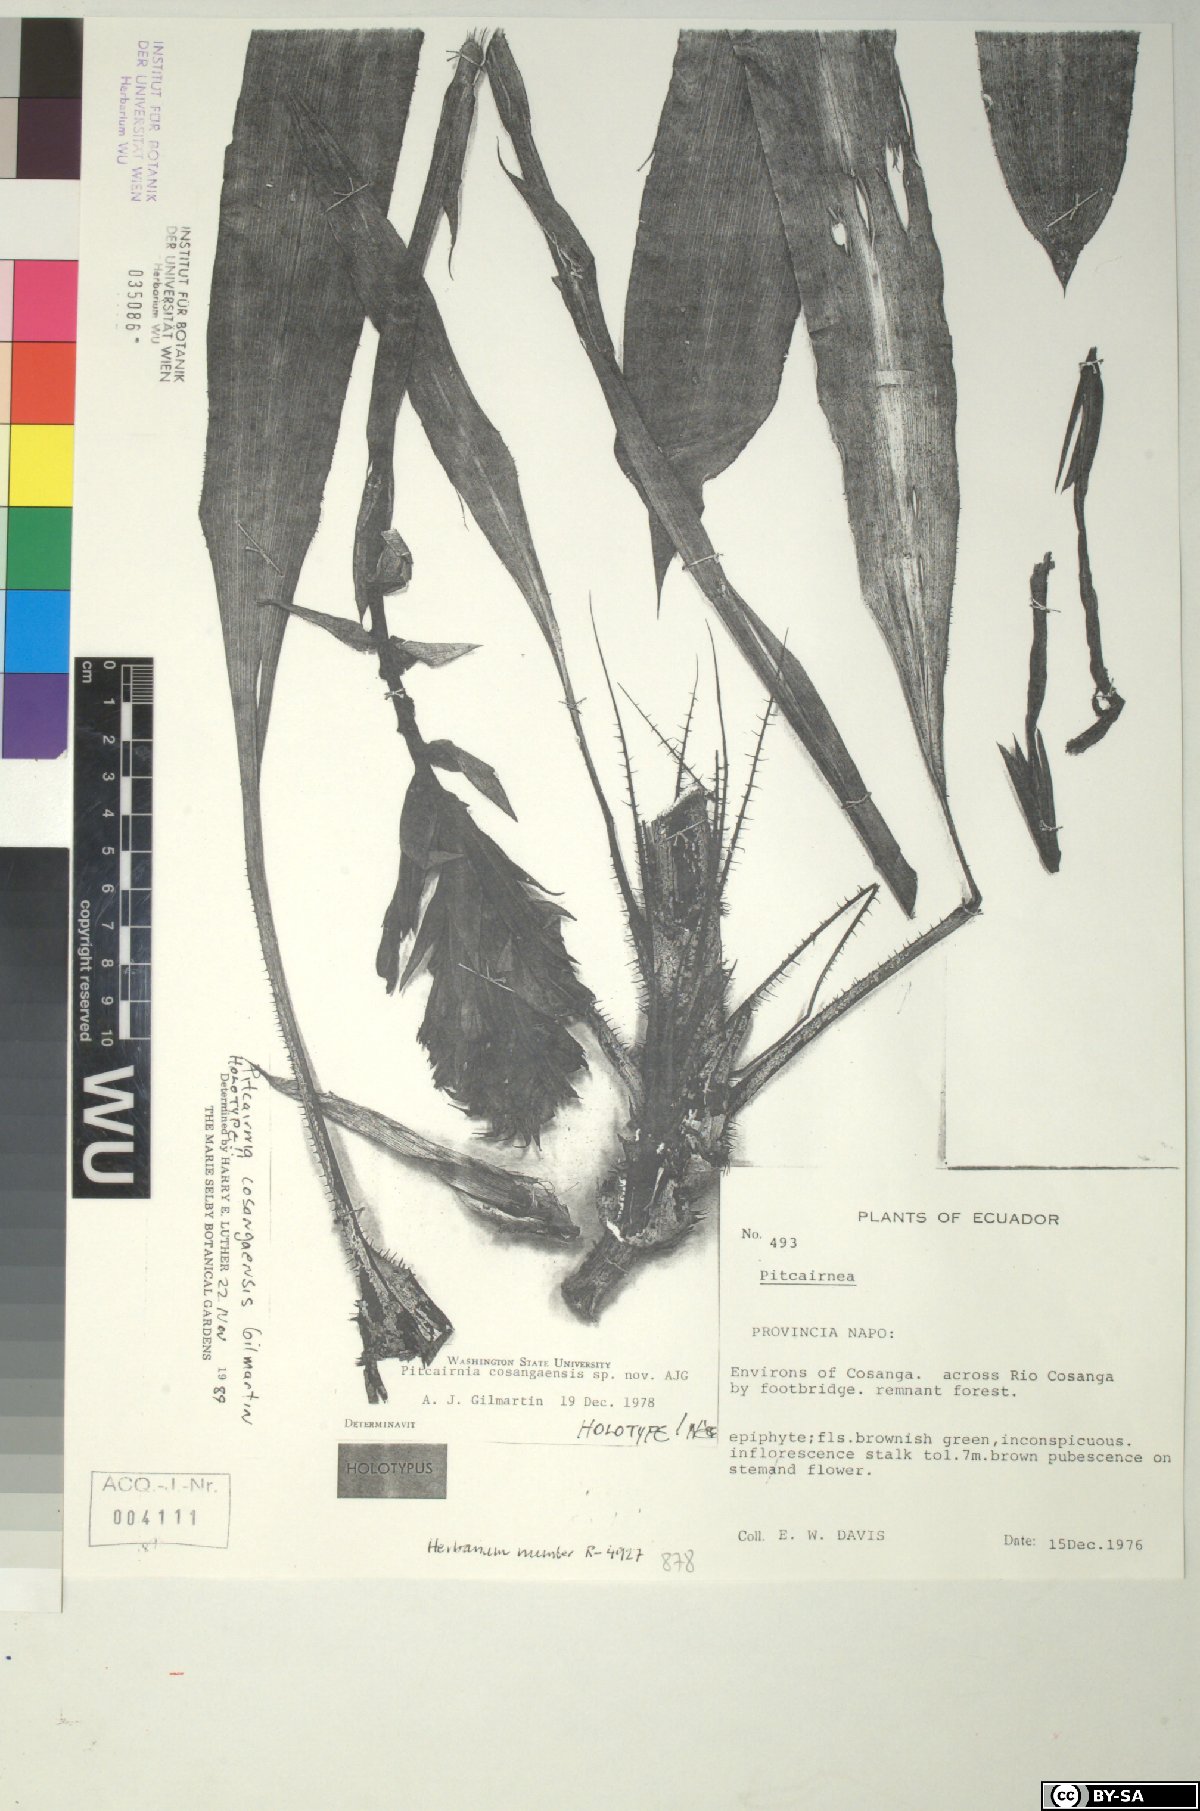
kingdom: Plantae
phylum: Tracheophyta
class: Liliopsida
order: Poales
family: Bromeliaceae
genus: Pitcairnia
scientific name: Pitcairnia cosangaensis
